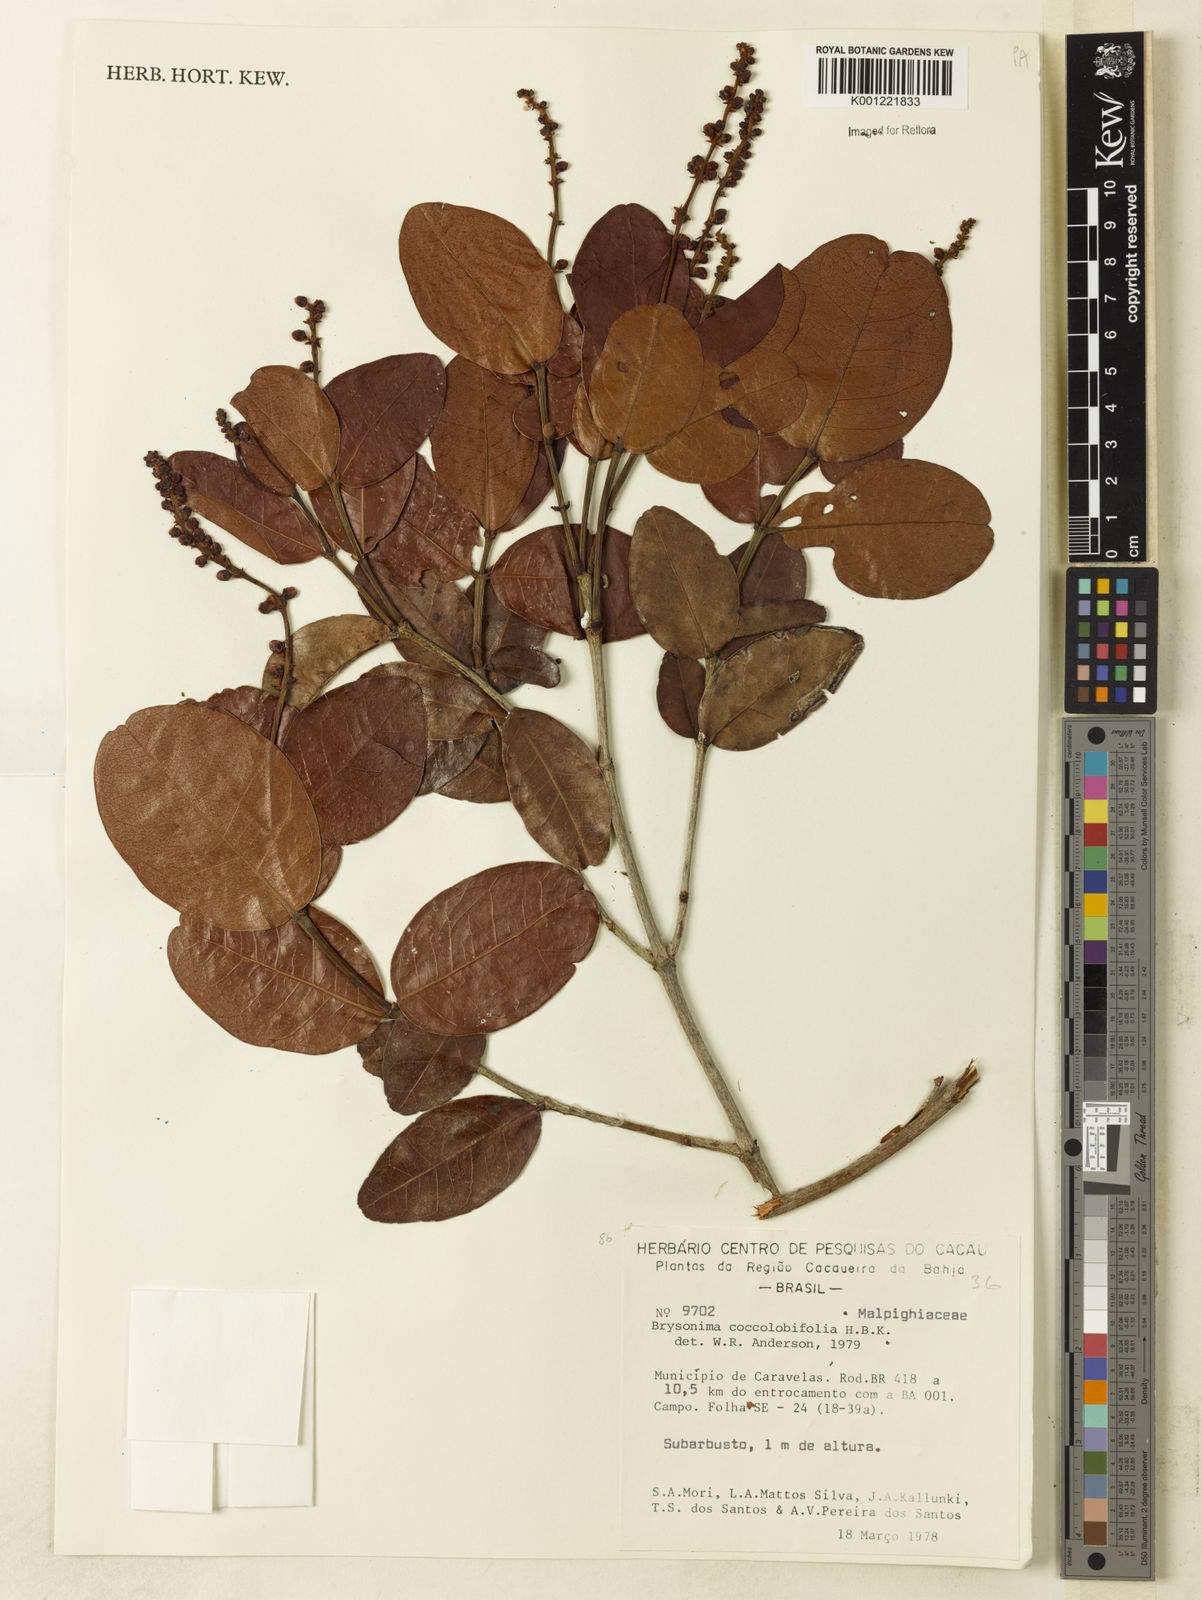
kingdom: Plantae
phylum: Tracheophyta
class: Magnoliopsida
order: Malpighiales
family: Malpighiaceae
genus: Byrsonima
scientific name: Byrsonima coccolobifolia
